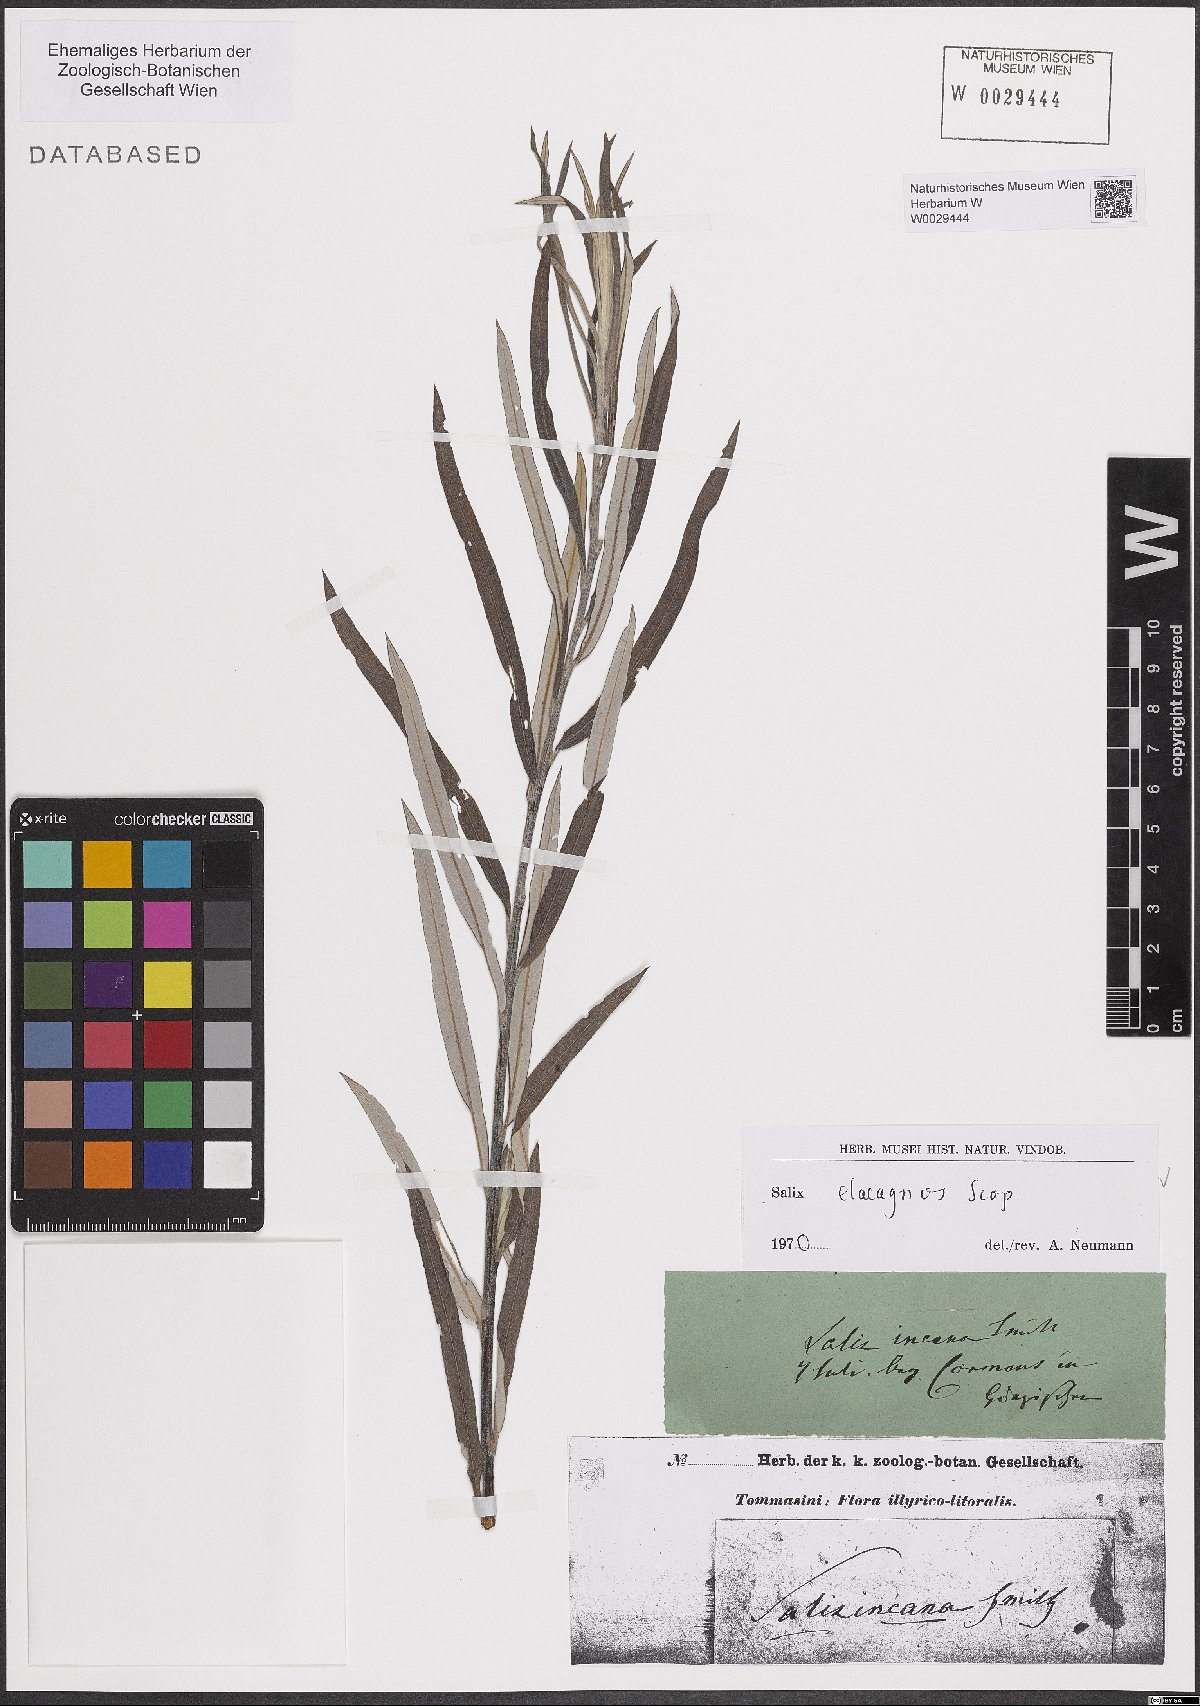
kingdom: Plantae
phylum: Tracheophyta
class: Magnoliopsida
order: Malpighiales
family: Salicaceae
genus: Salix
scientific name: Salix eleagnos
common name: Elaeagnus willow
